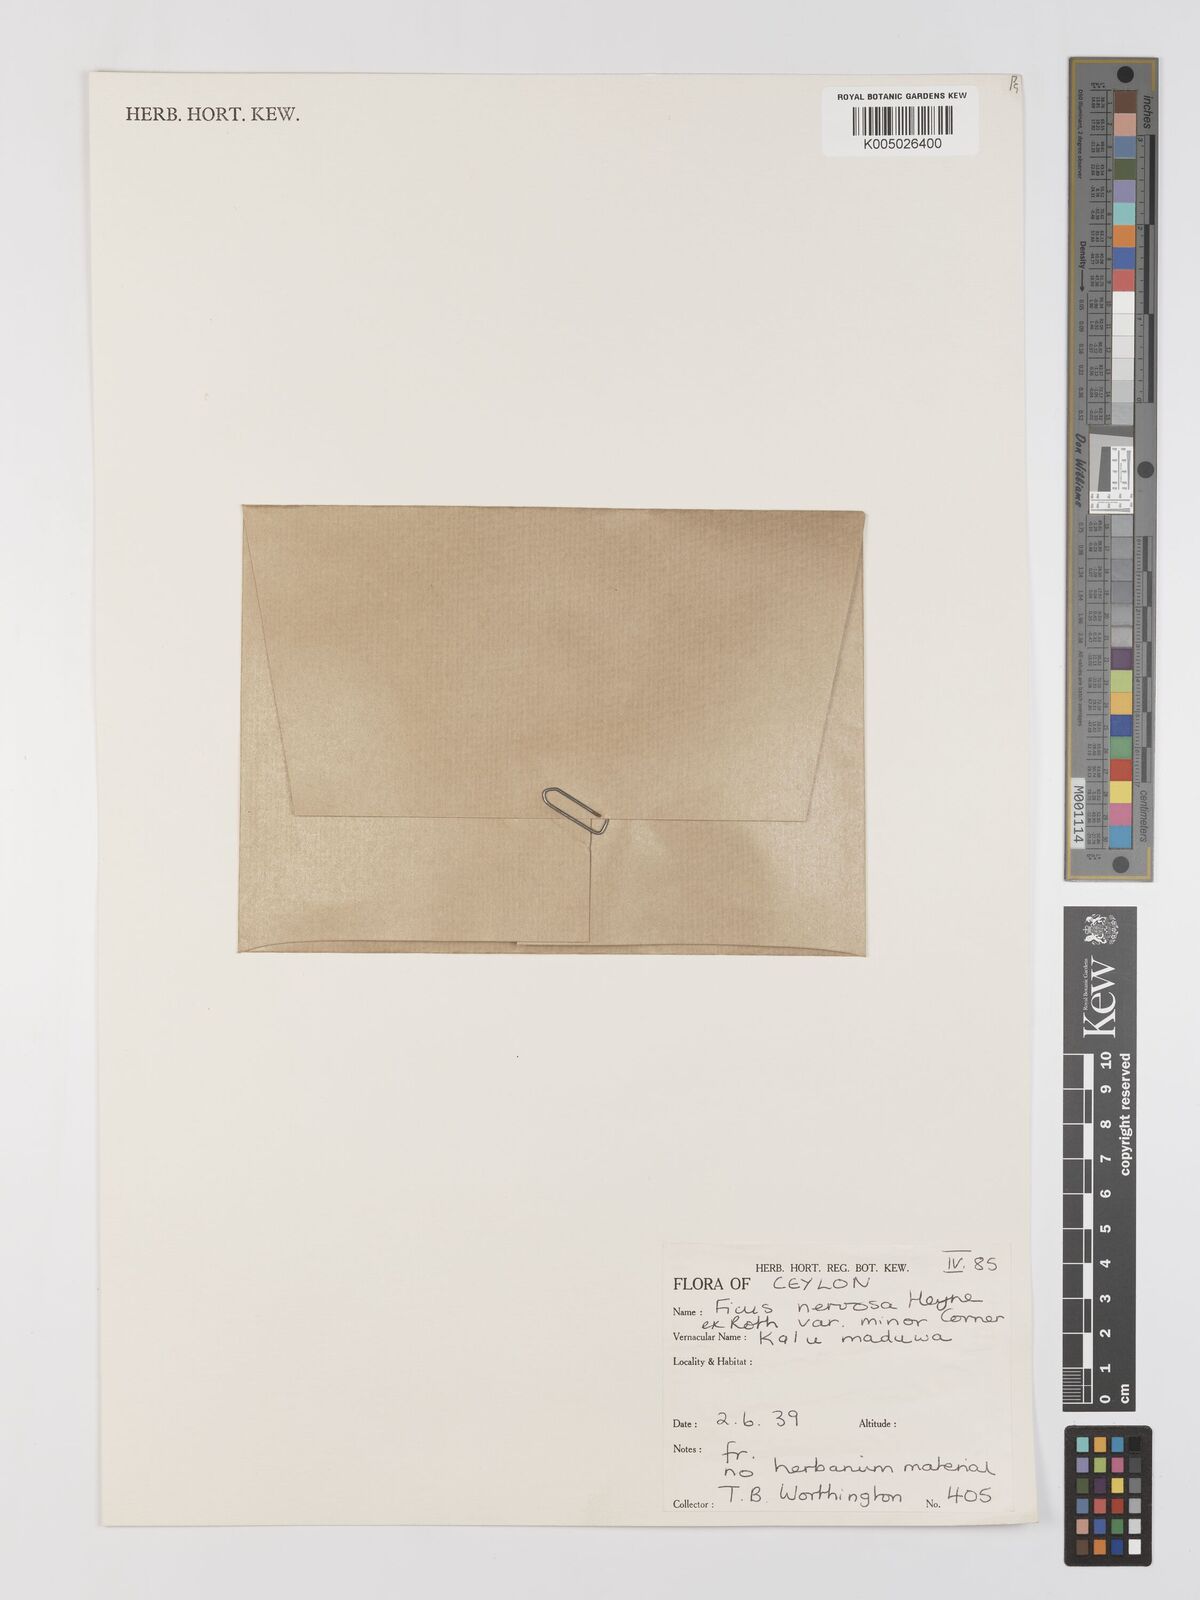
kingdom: Plantae
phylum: Tracheophyta
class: Magnoliopsida
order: Rosales
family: Moraceae
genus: Ficus
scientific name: Ficus
